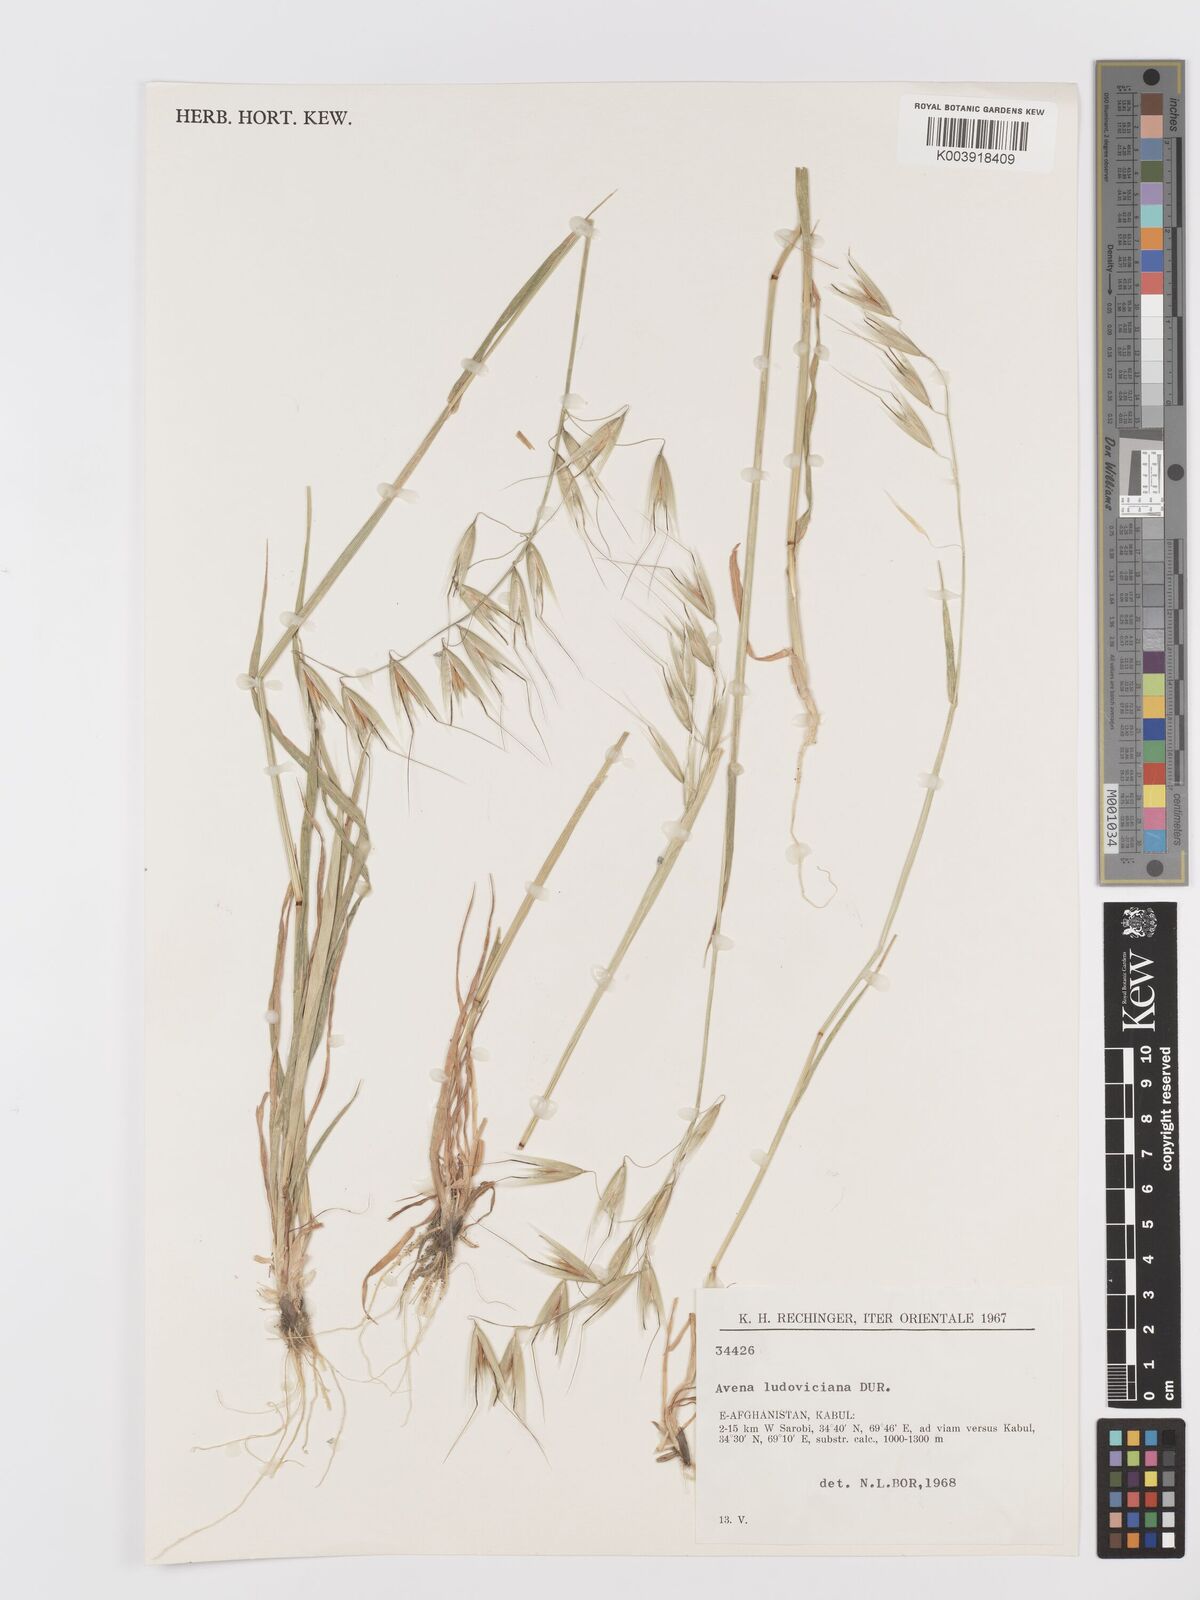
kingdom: Plantae
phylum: Tracheophyta
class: Liliopsida
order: Poales
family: Poaceae
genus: Avena
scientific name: Avena sterilis
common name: Animated oat
